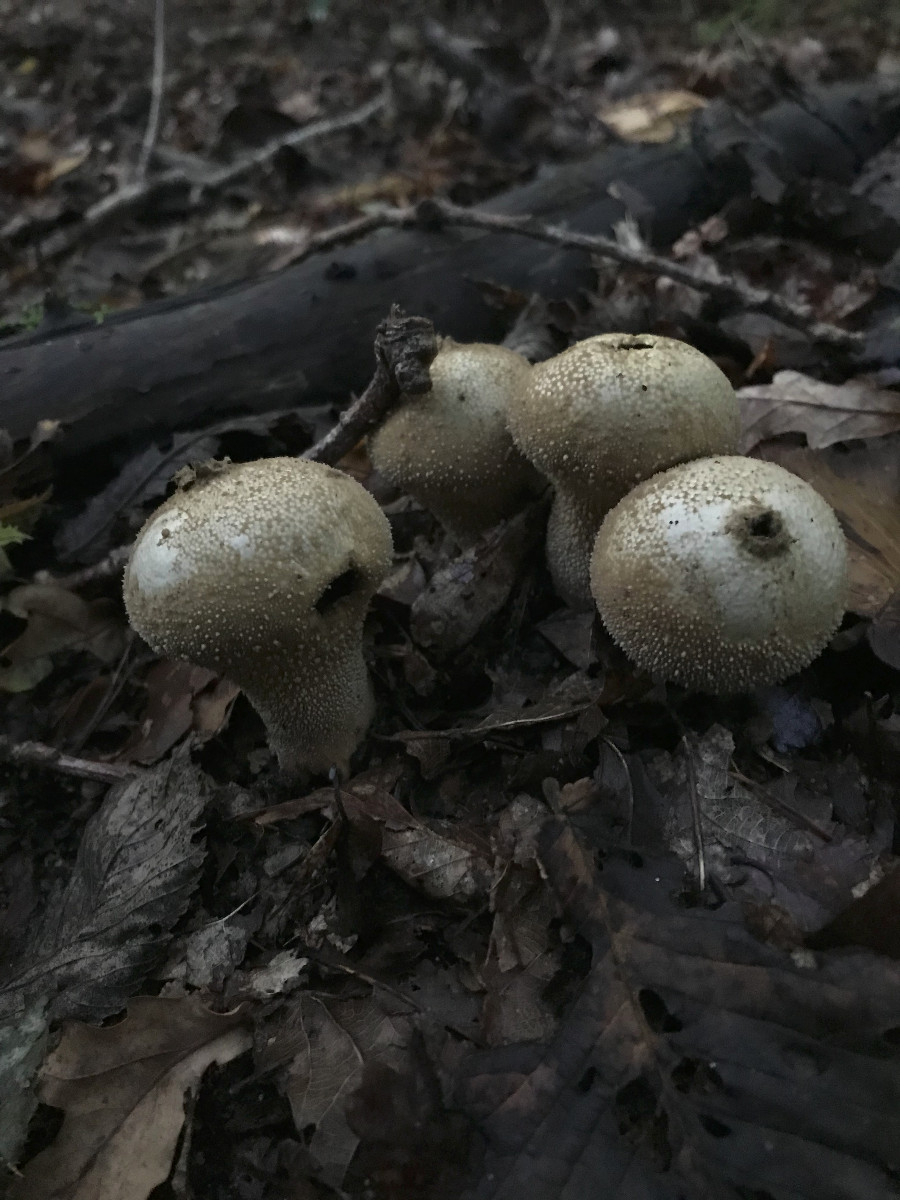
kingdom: Fungi
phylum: Basidiomycota
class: Agaricomycetes
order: Agaricales
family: Lycoperdaceae
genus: Lycoperdon
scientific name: Lycoperdon perlatum
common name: krystal-støvbold
